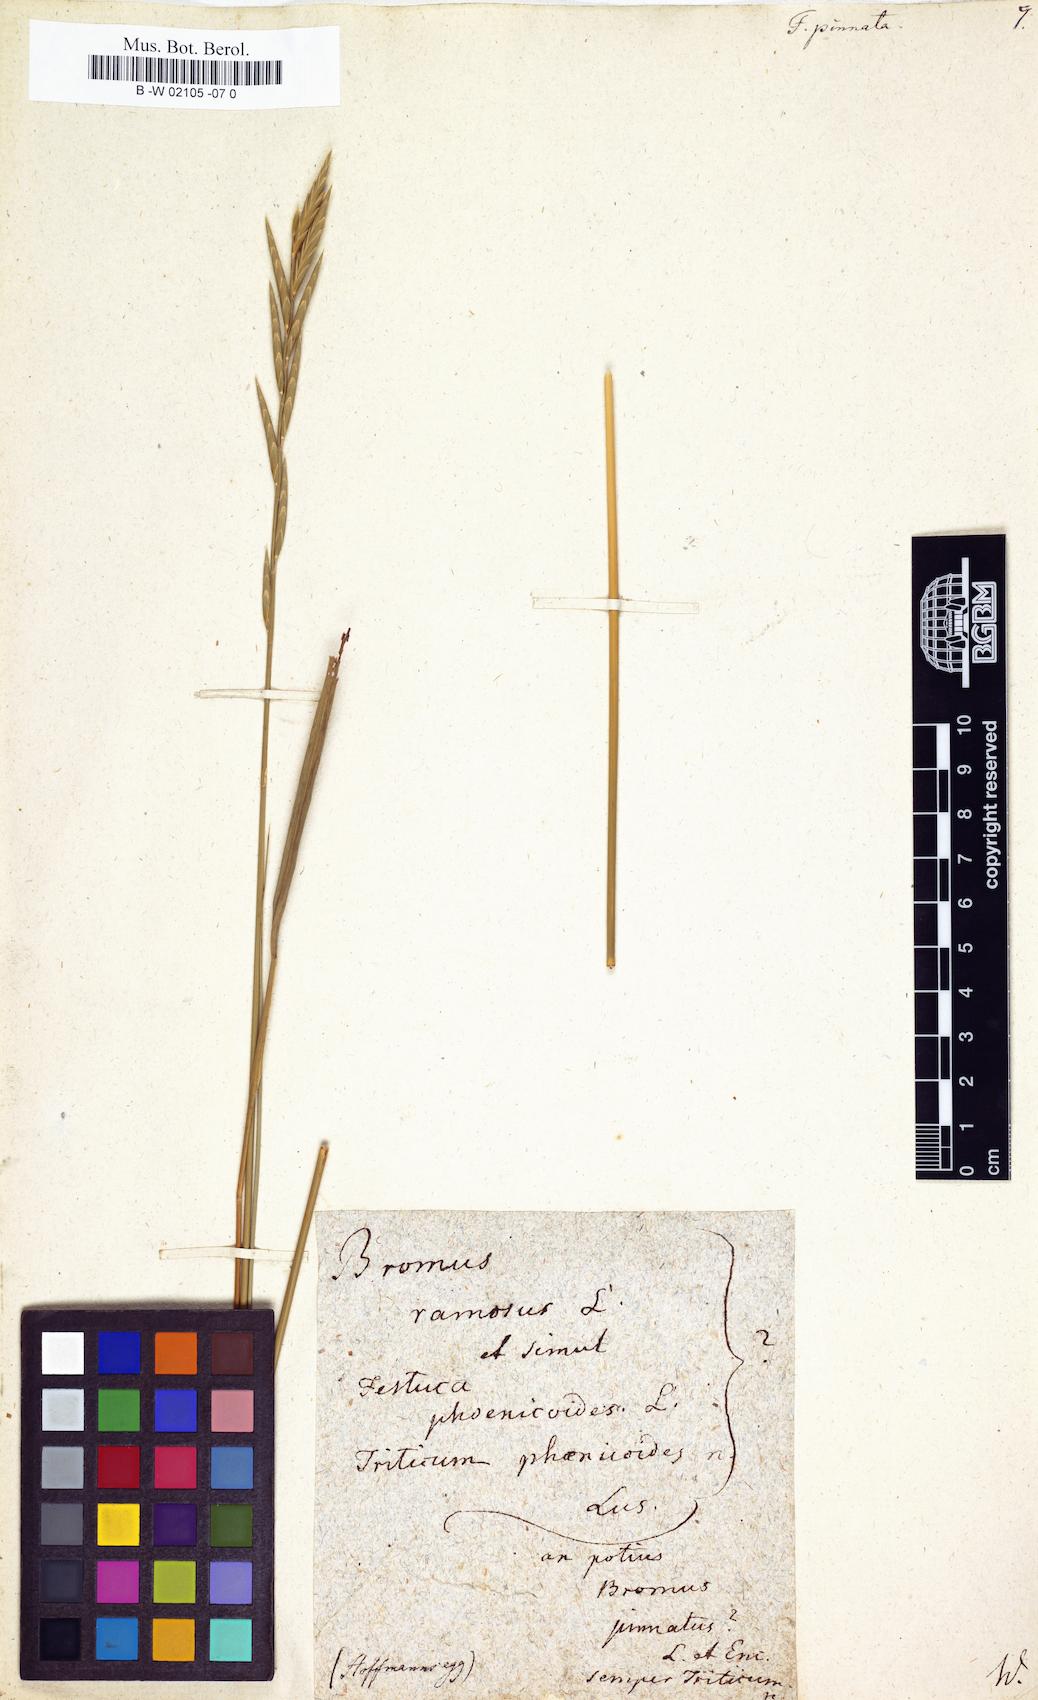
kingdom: Plantae
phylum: Tracheophyta
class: Liliopsida
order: Poales
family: Poaceae
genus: Brachypodium
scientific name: Brachypodium pinnatum
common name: Tor grass
